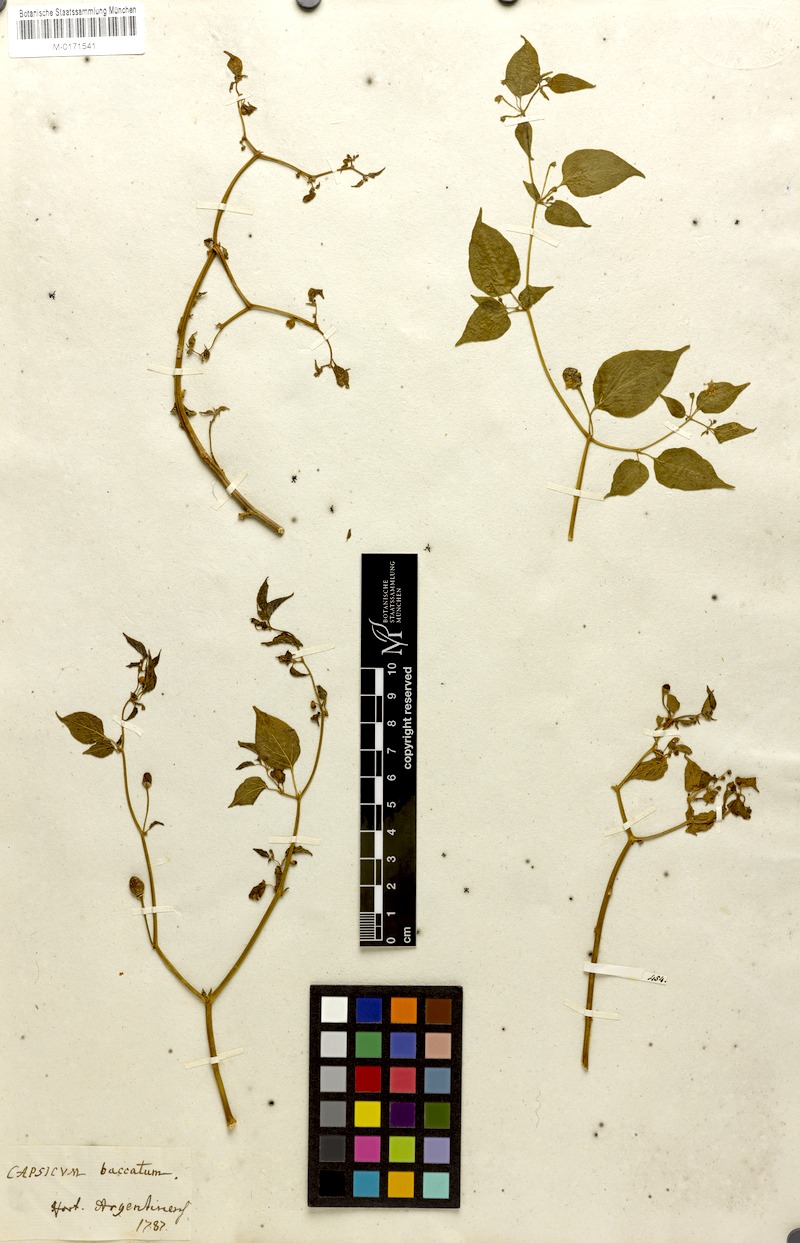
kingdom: Plantae
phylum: Tracheophyta
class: Magnoliopsida
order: Solanales
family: Solanaceae
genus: Capsicum
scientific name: Capsicum baccatum
